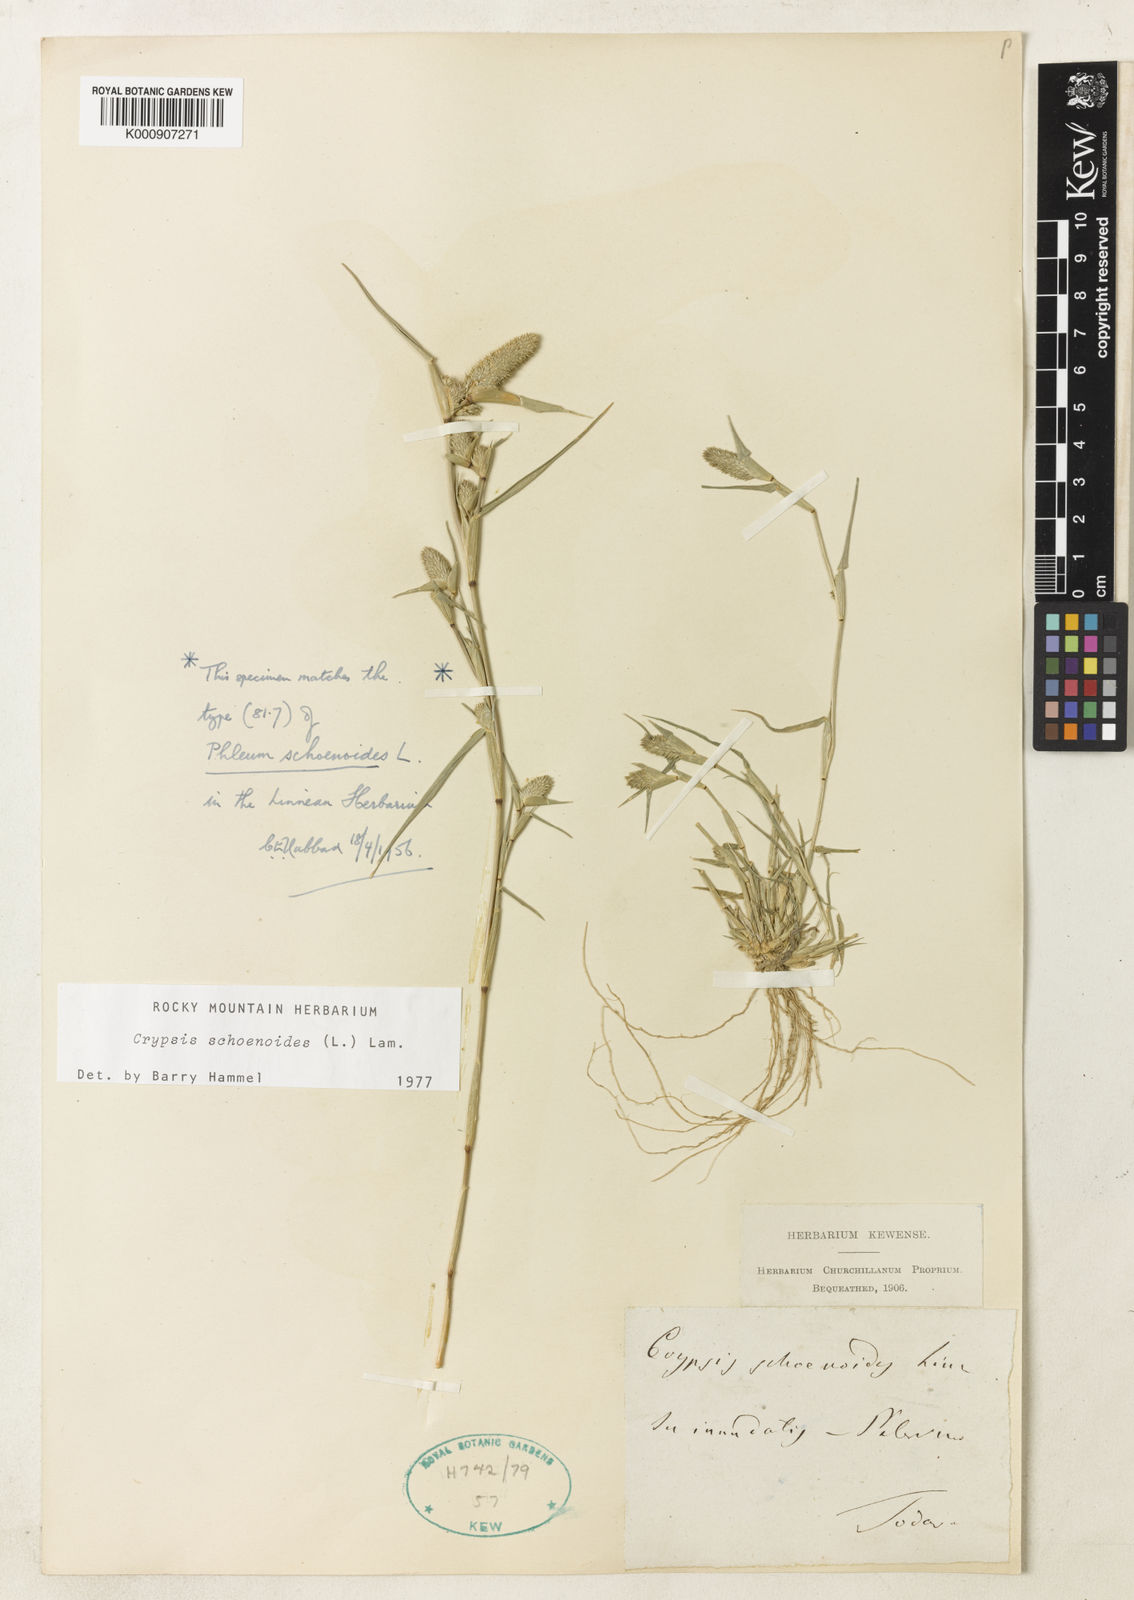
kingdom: Plantae
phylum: Tracheophyta
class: Liliopsida
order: Poales
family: Poaceae
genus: Sporobolus
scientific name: Sporobolus schoenoides
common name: Rush-like timothy
